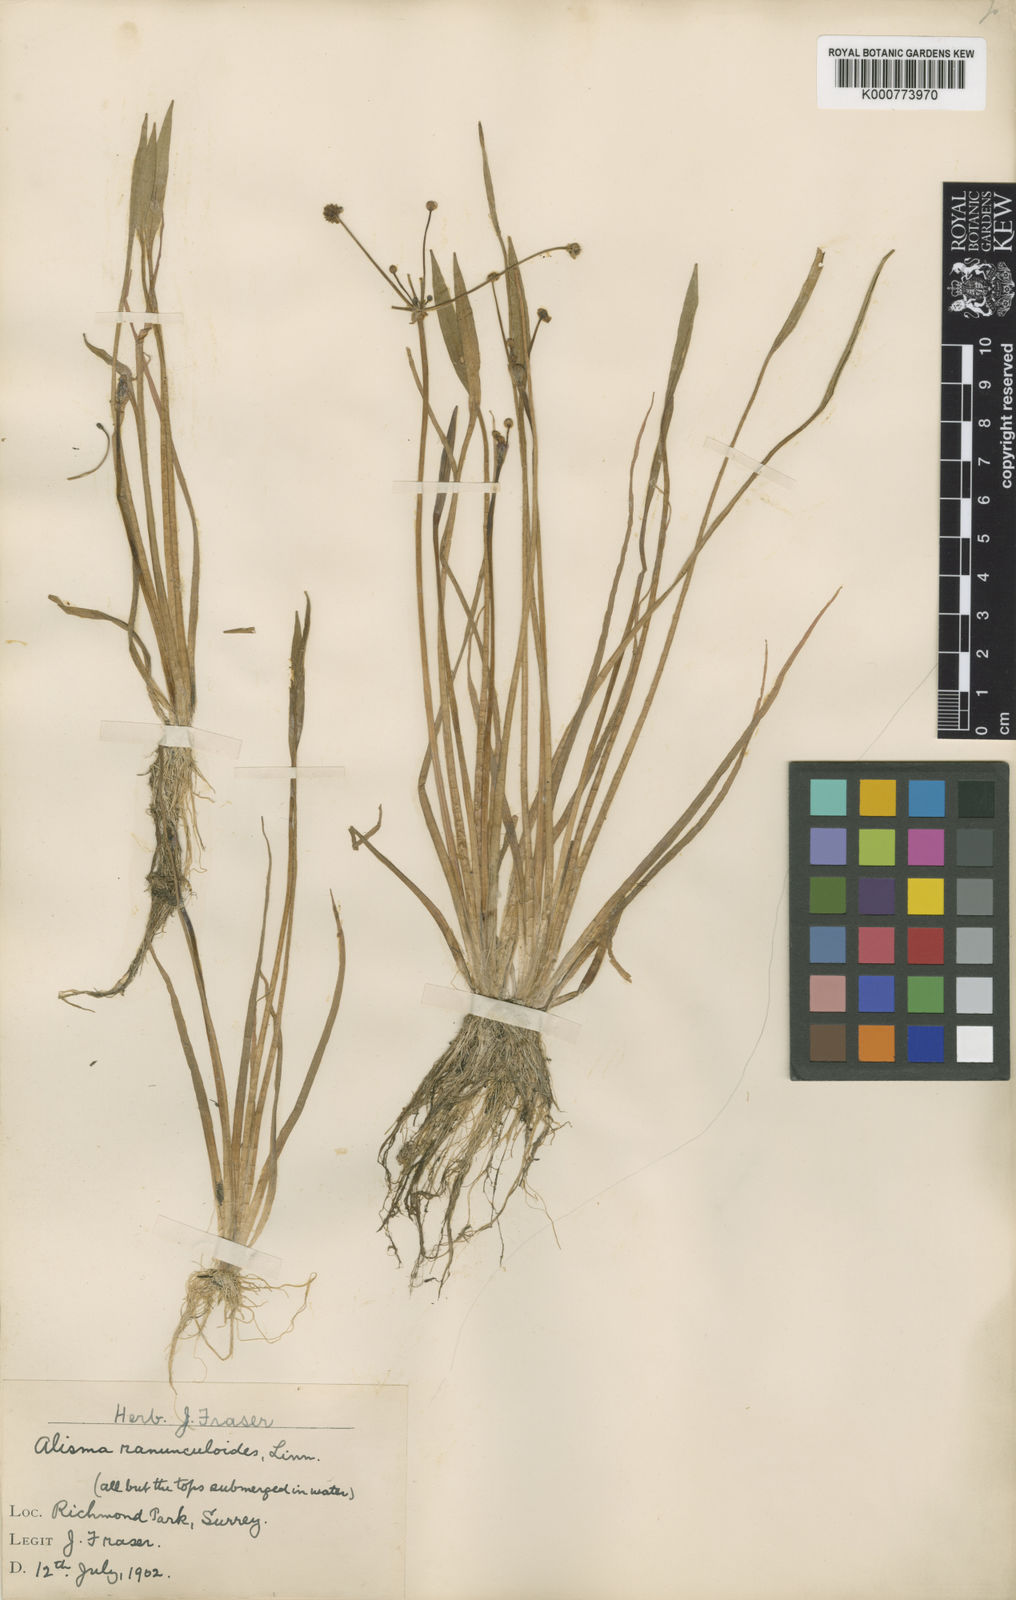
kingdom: Plantae
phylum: Tracheophyta
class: Liliopsida
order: Alismatales
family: Alismataceae
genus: Baldellia
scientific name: Baldellia ranunculoides
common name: Lesser water-plantain
